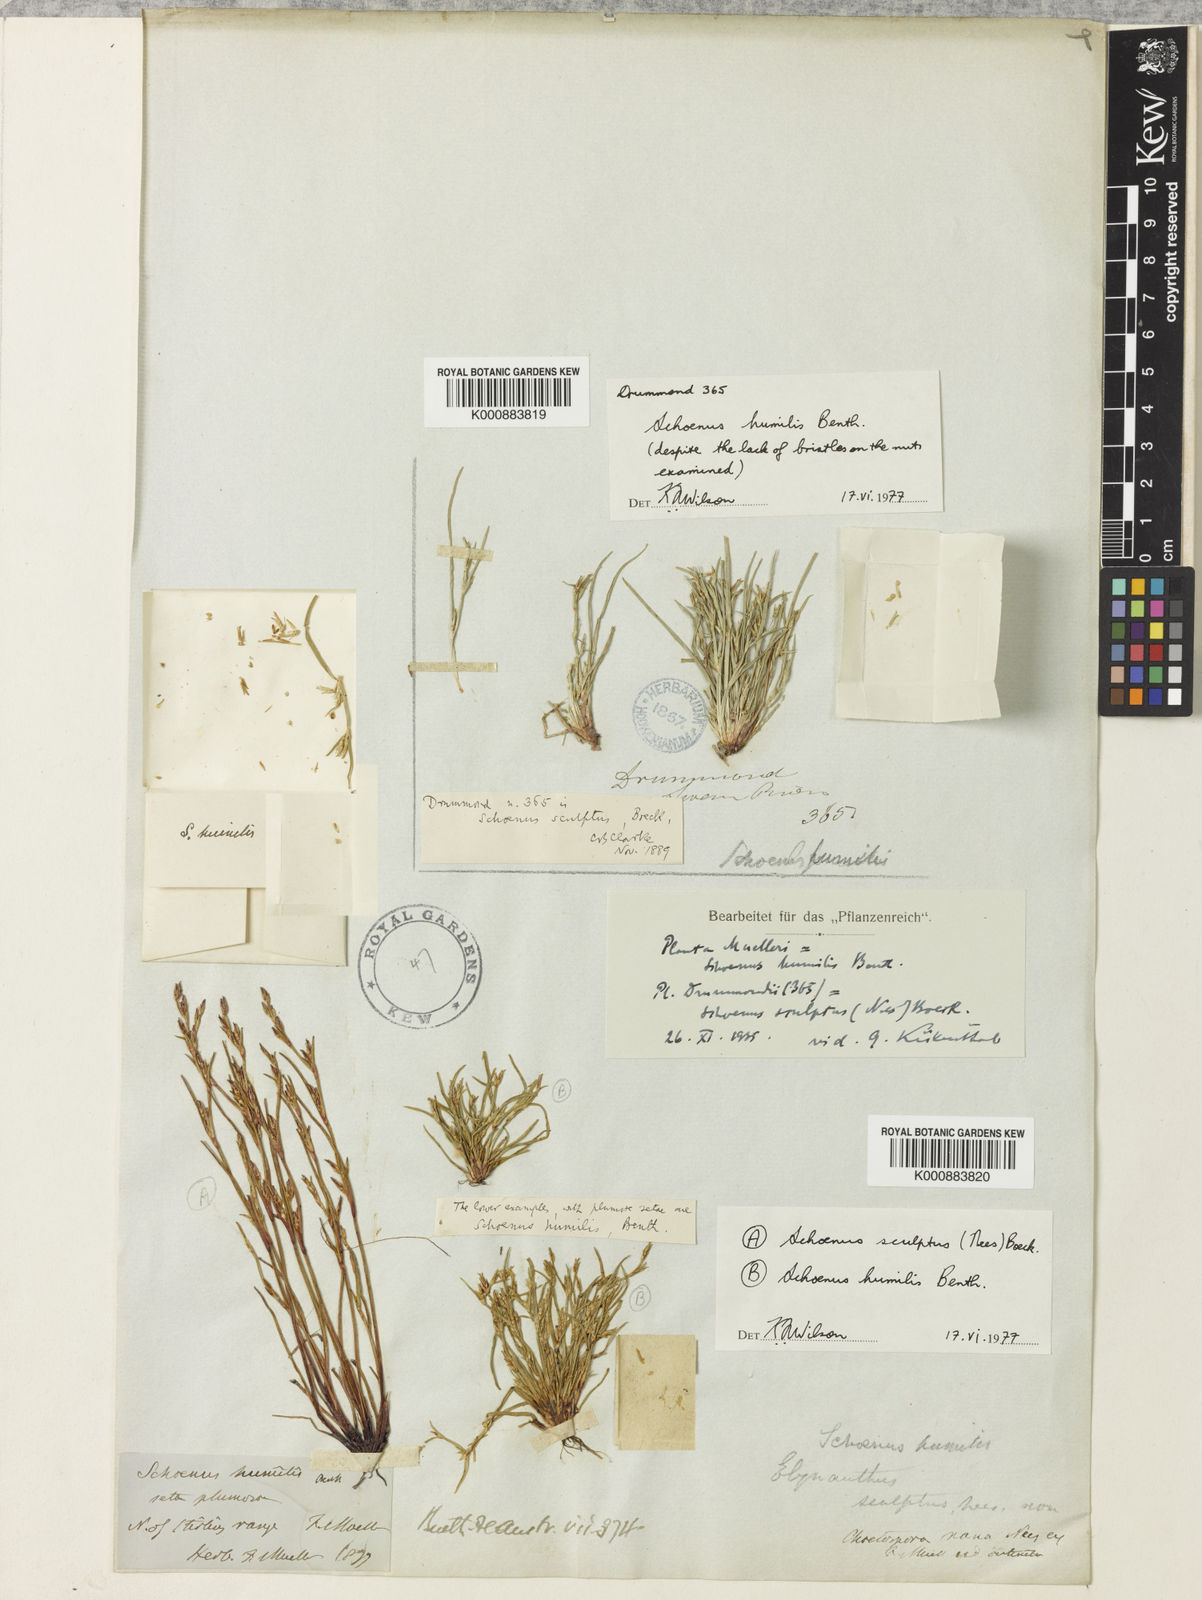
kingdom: Plantae
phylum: Tracheophyta
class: Liliopsida
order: Poales
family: Cyperaceae
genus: Schoenus
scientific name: Schoenus humilis
